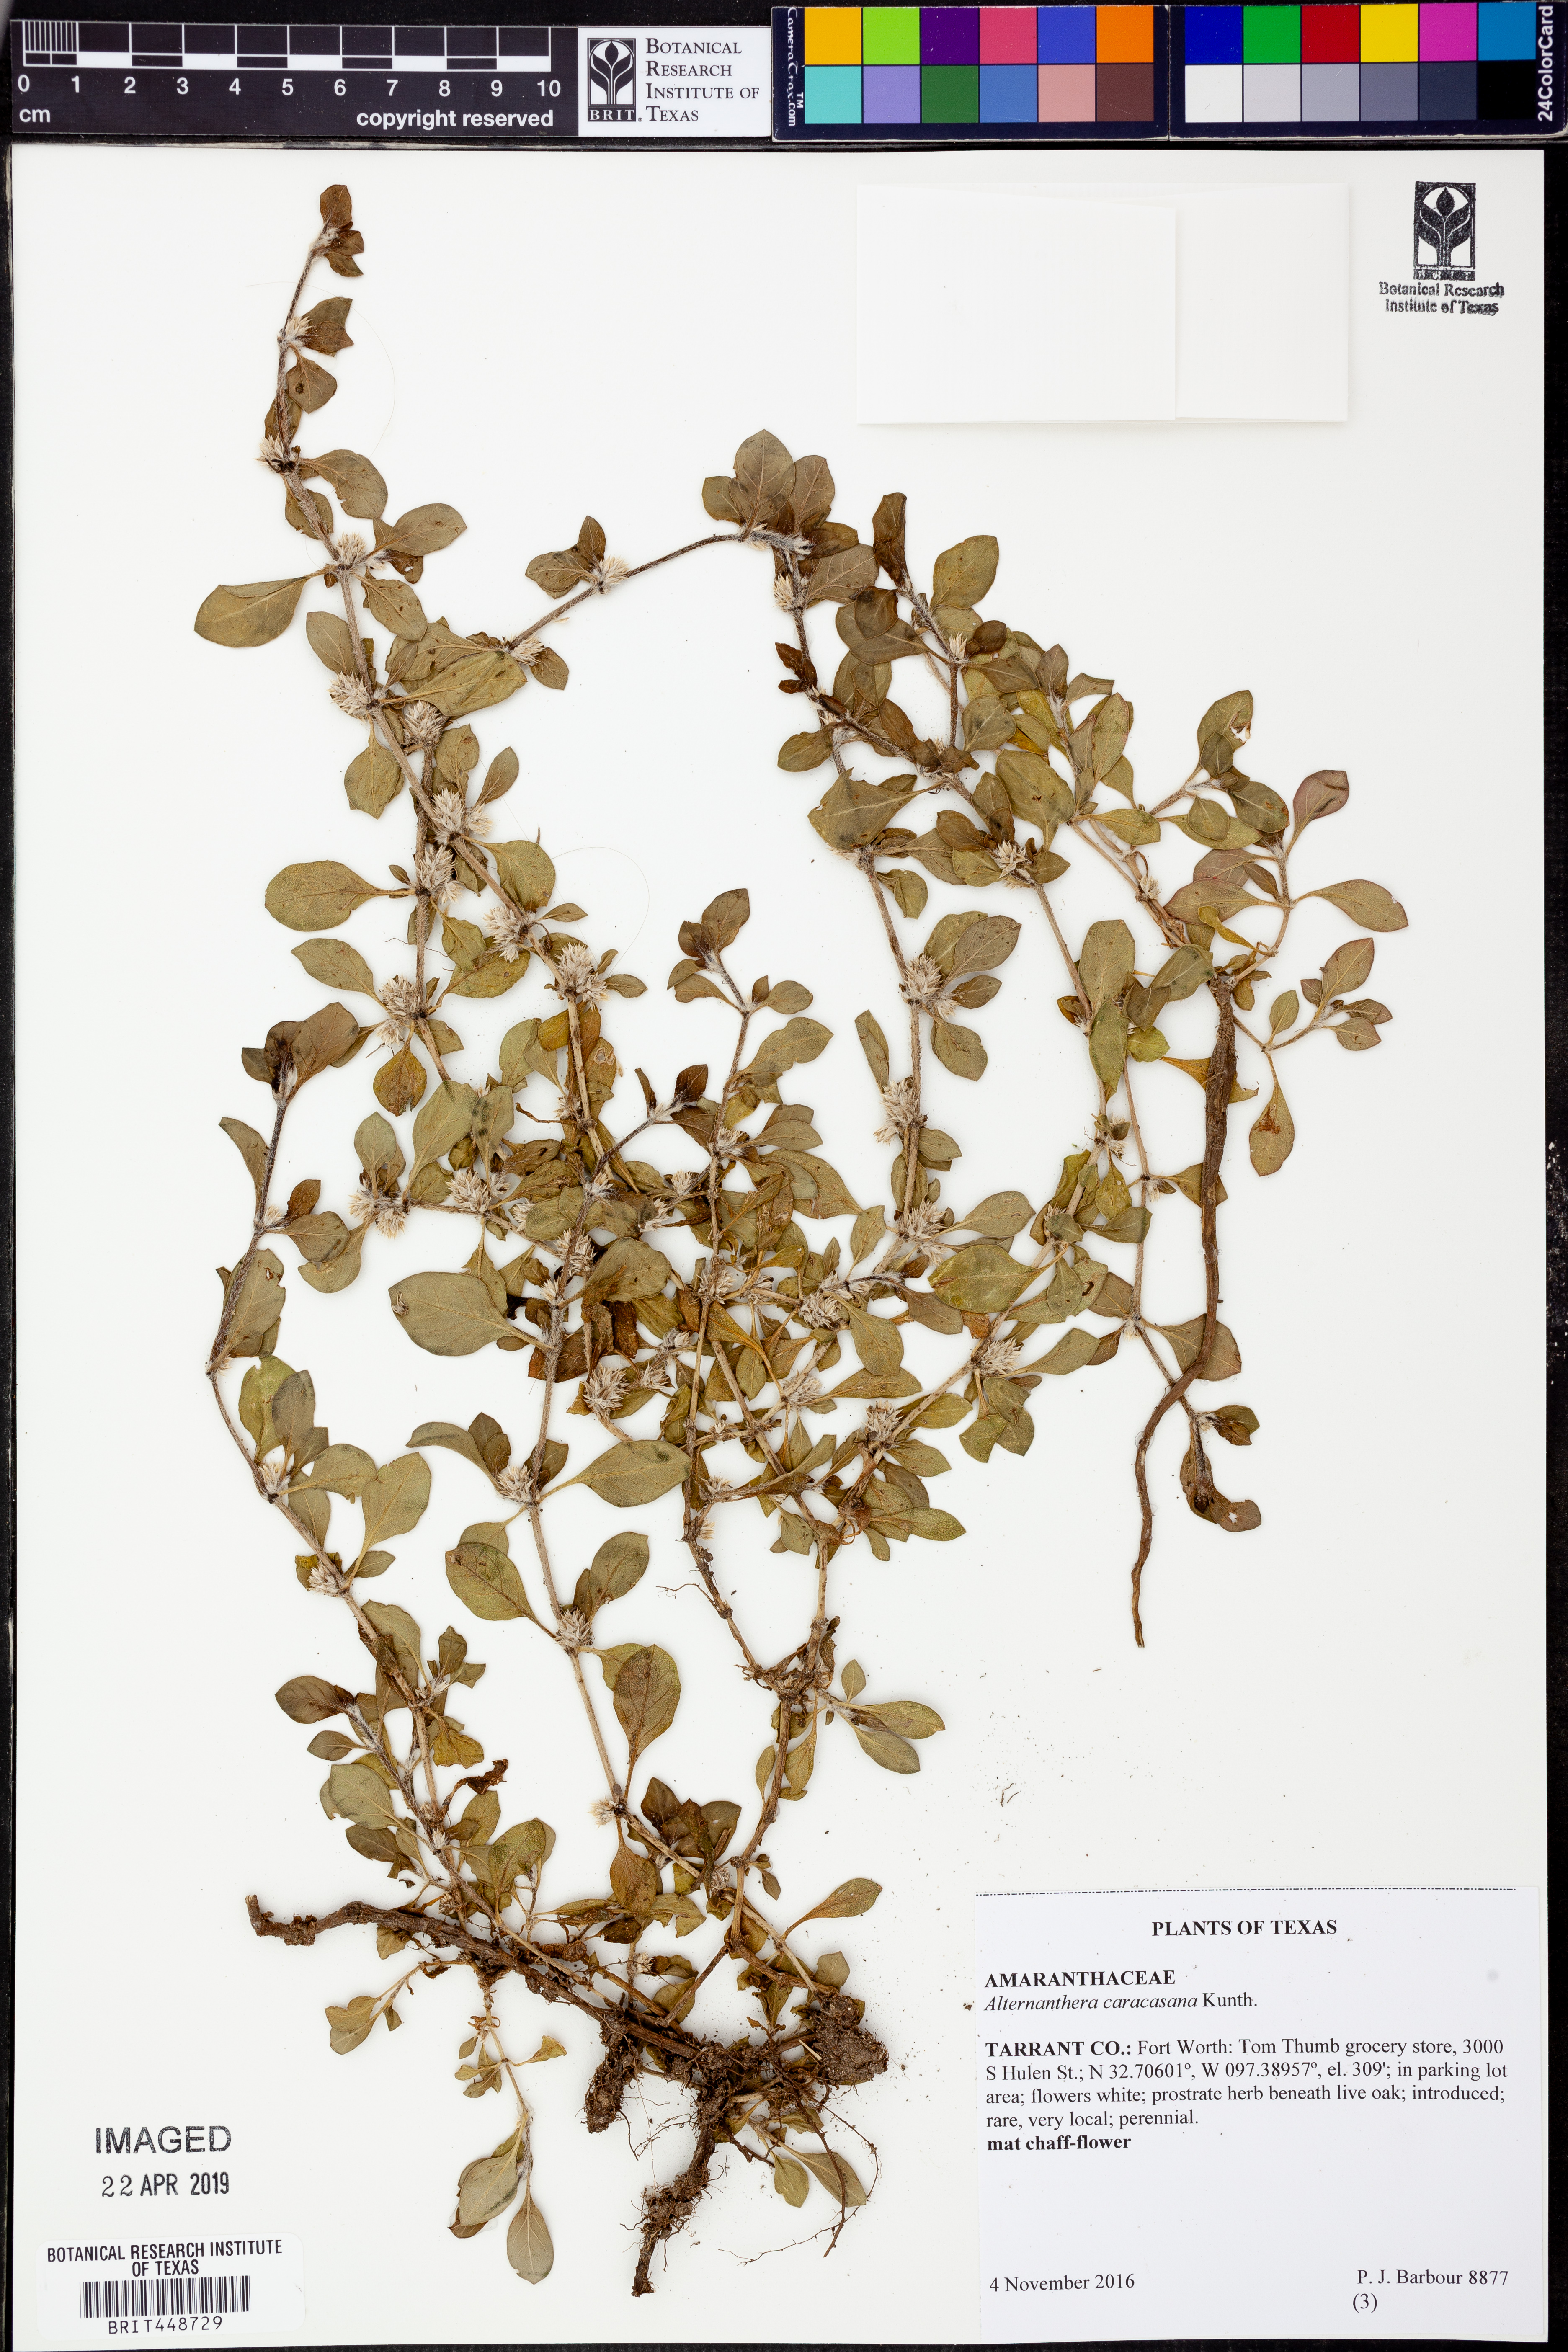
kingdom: Plantae
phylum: Tracheophyta
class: Magnoliopsida
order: Caryophyllales
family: Amaranthaceae
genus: Alternanthera
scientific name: Alternanthera caracasana
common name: Washerwoman
